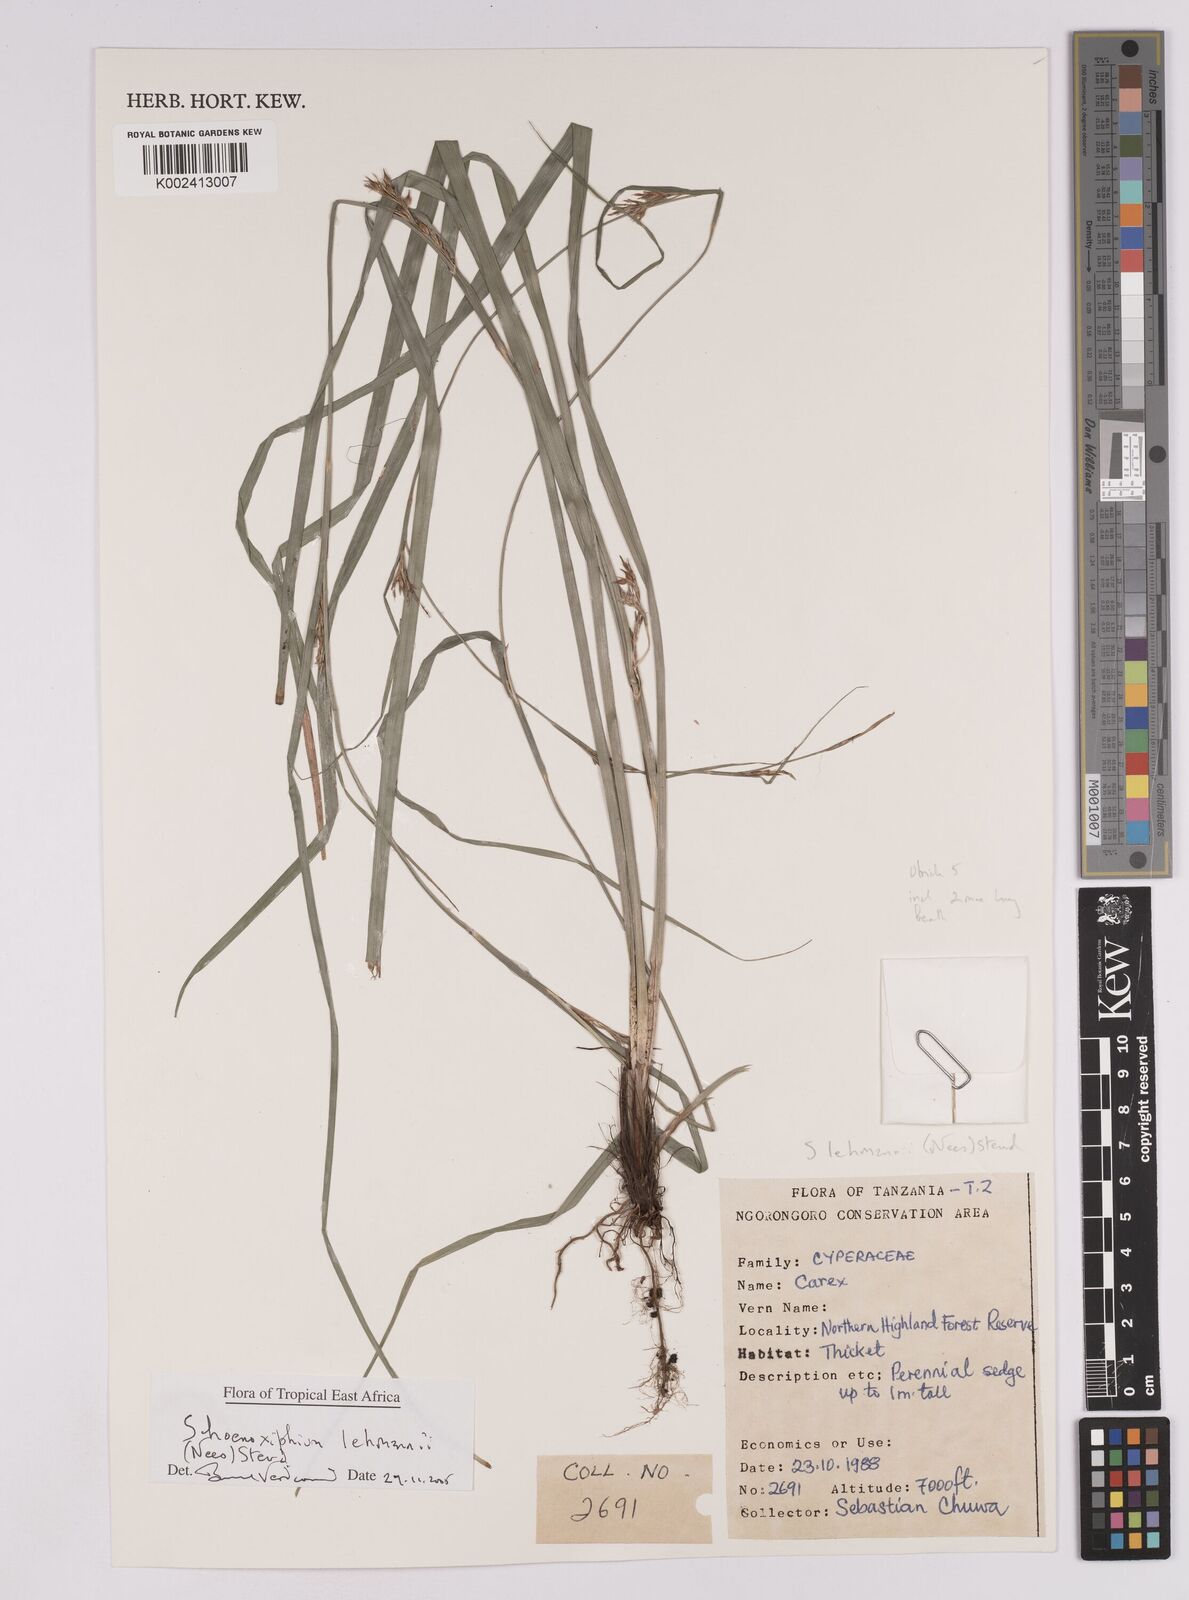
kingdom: Plantae
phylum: Tracheophyta
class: Liliopsida
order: Poales
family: Cyperaceae
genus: Carex
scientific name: Carex uhligii
